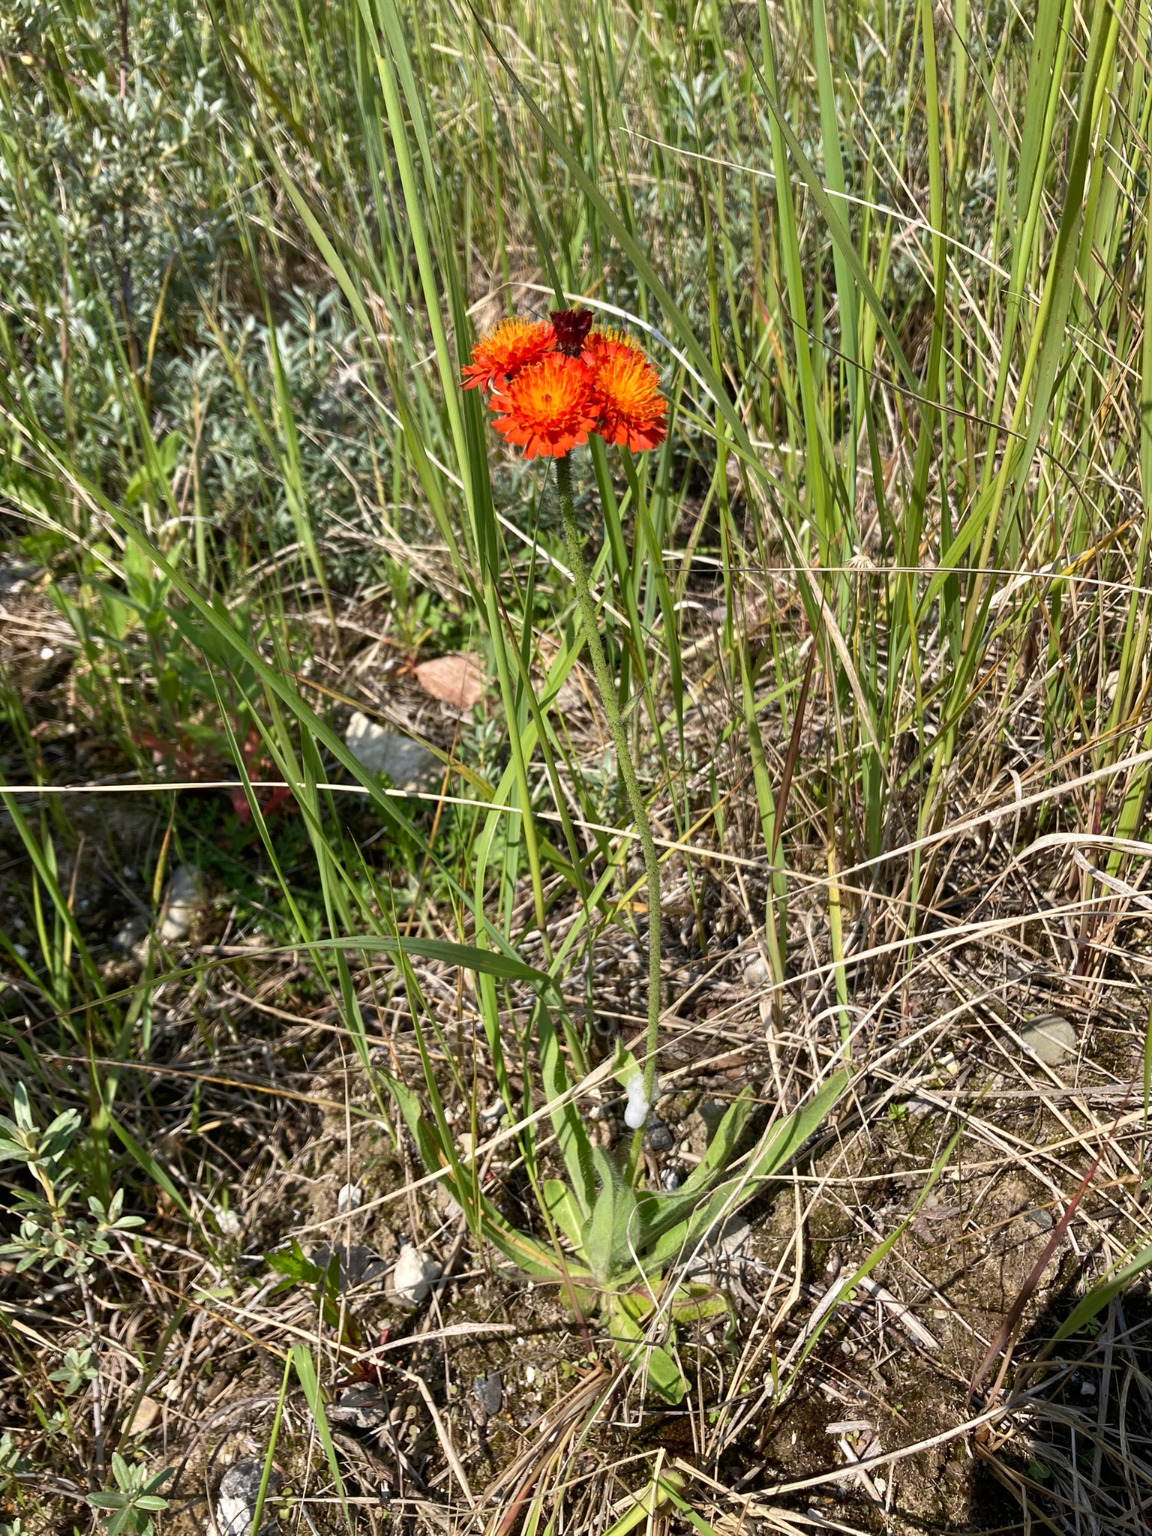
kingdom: Plantae
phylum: Tracheophyta
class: Magnoliopsida
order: Asterales
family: Asteraceae
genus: Pilosella
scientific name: Pilosella aurantiaca
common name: Pomerans-høgeurt
